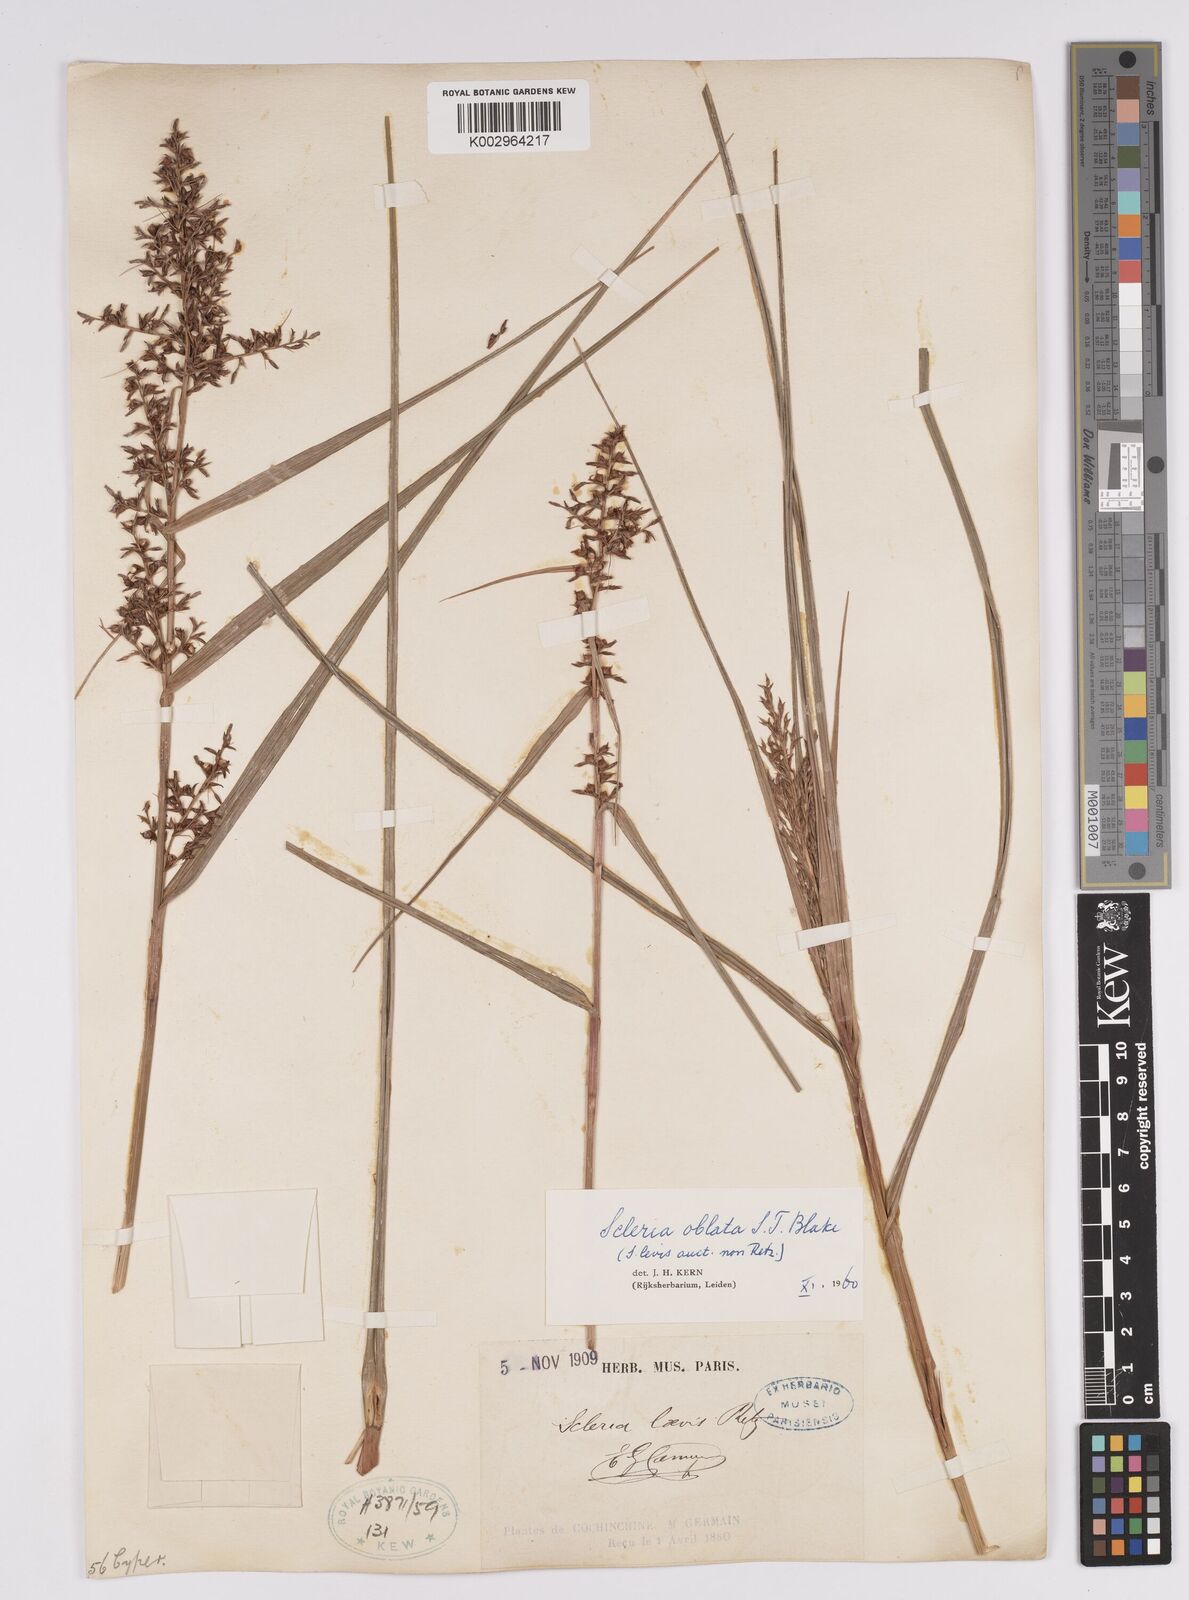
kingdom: Plantae
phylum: Tracheophyta
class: Liliopsida
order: Poales
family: Cyperaceae
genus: Scleria
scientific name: Scleria oblata
